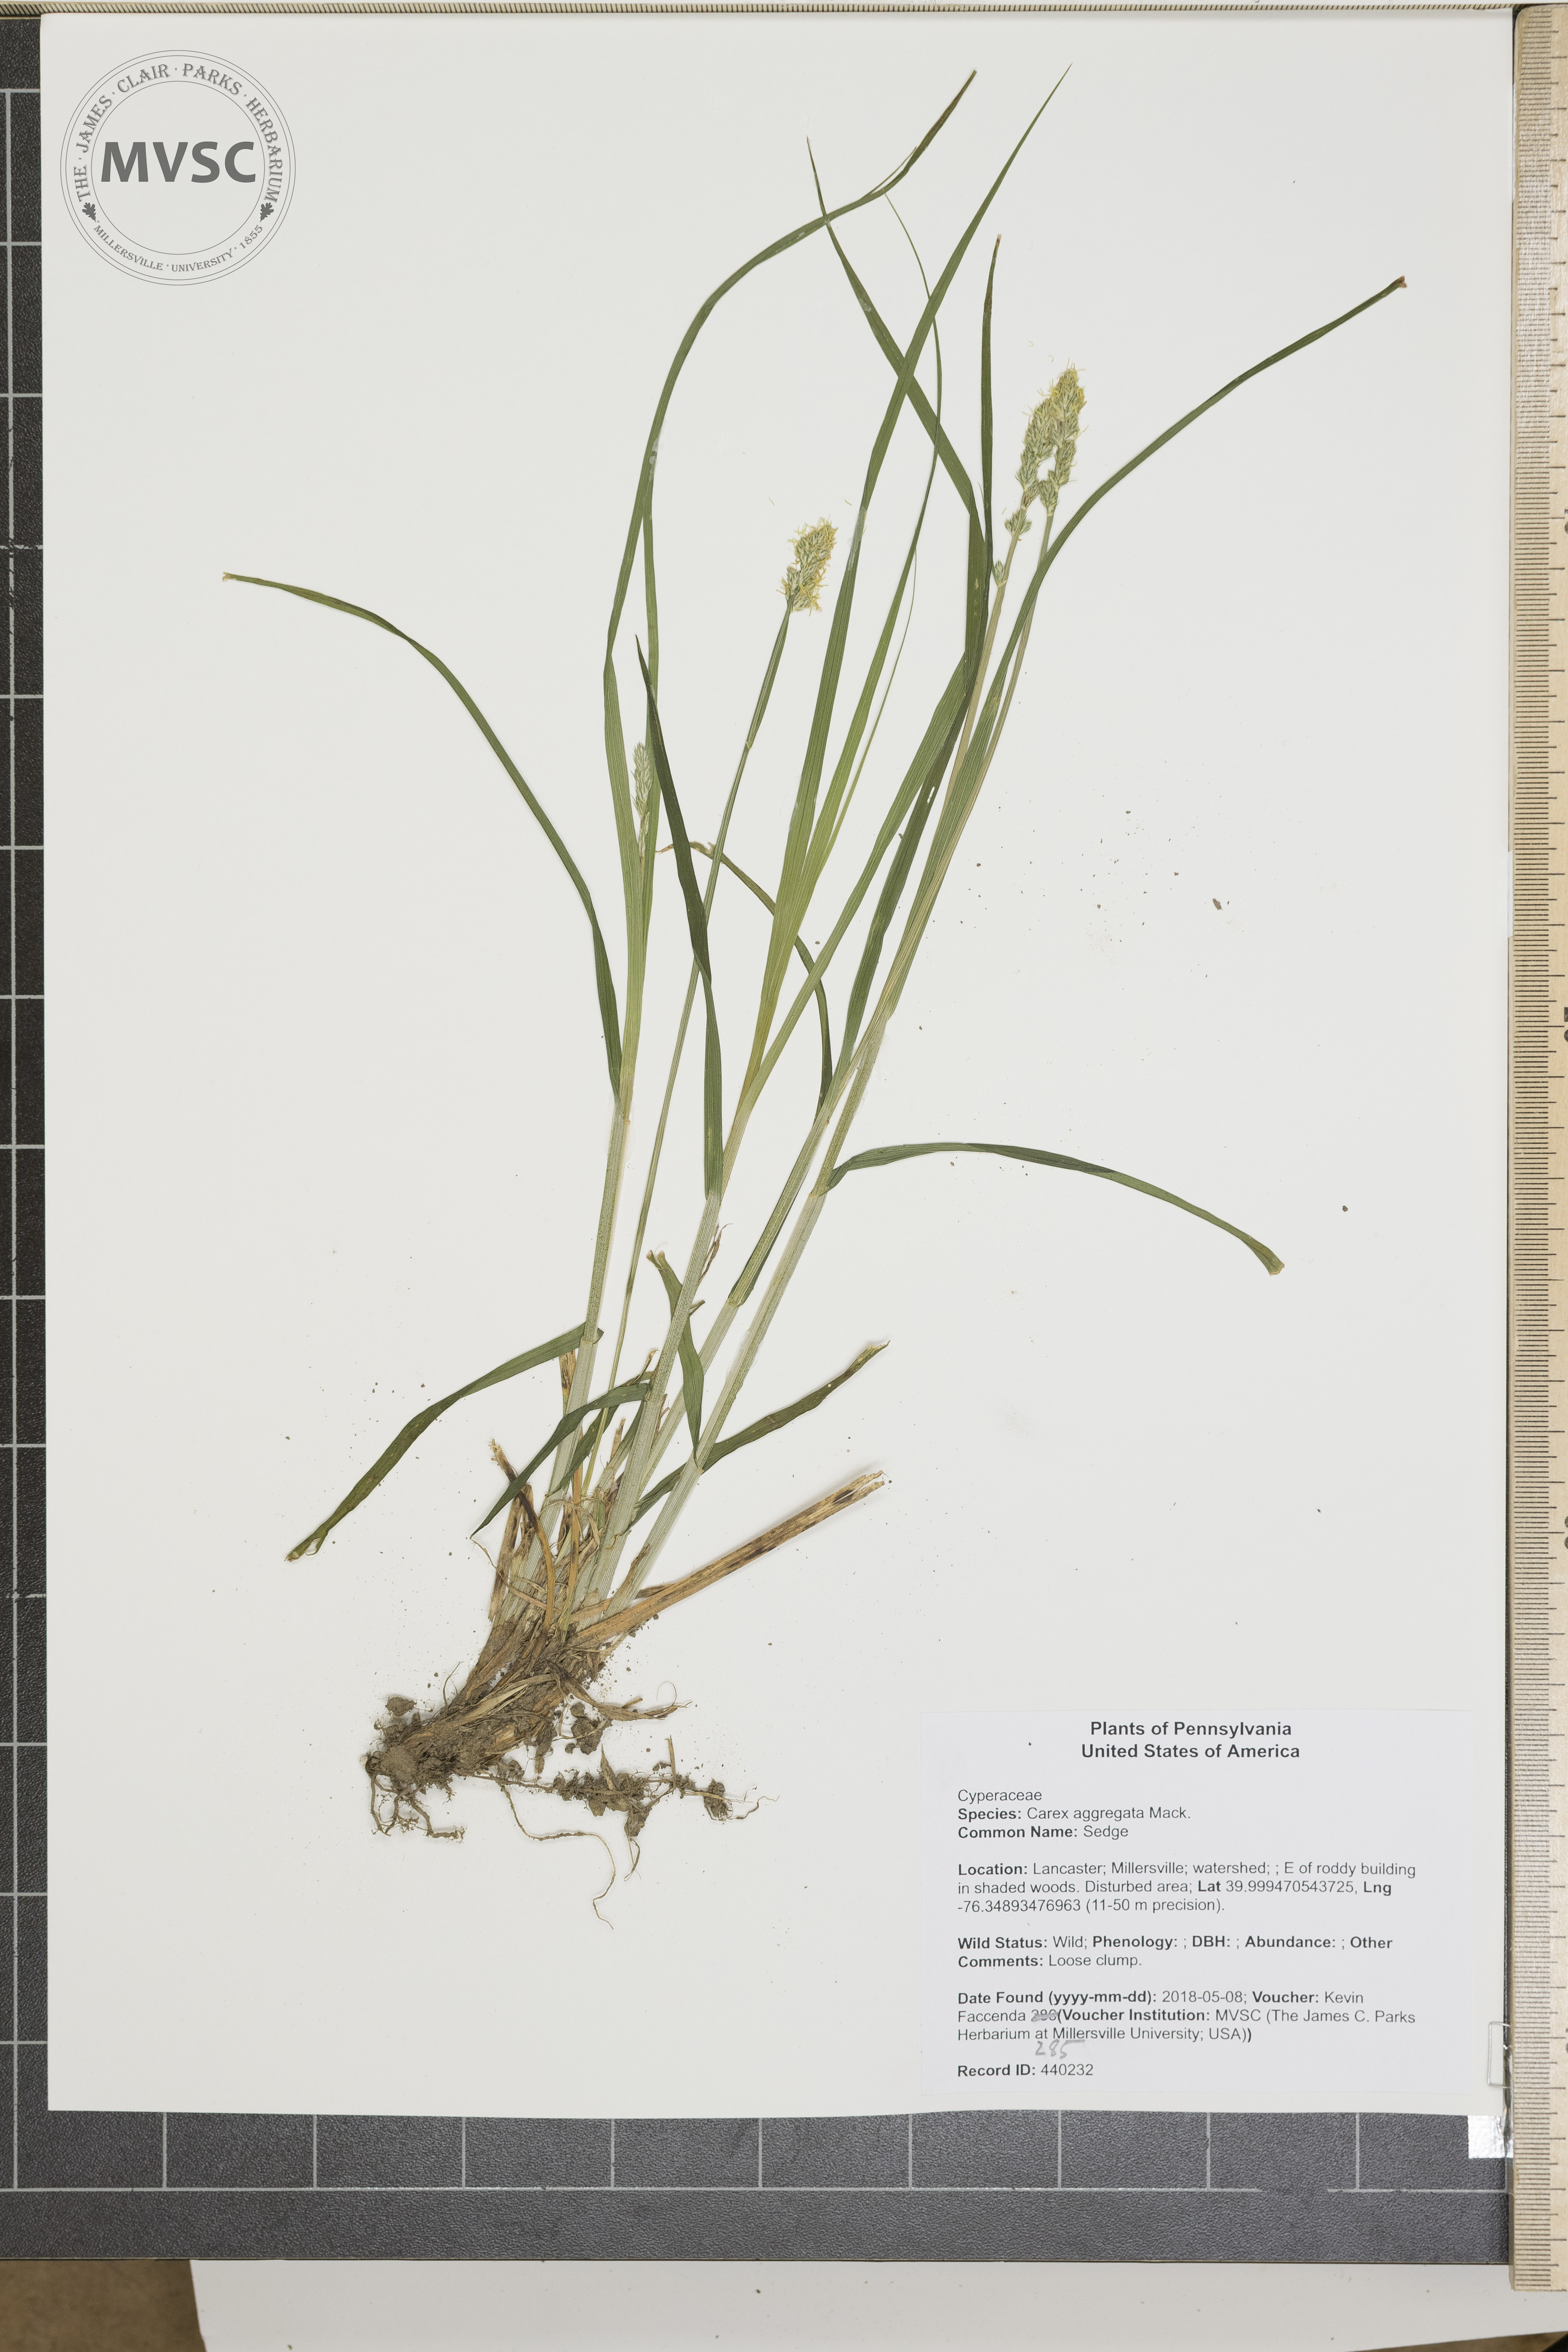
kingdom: Plantae
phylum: Tracheophyta
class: Liliopsida
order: Poales
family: Cyperaceae
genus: Carex
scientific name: Carex aggregata
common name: Sedge
